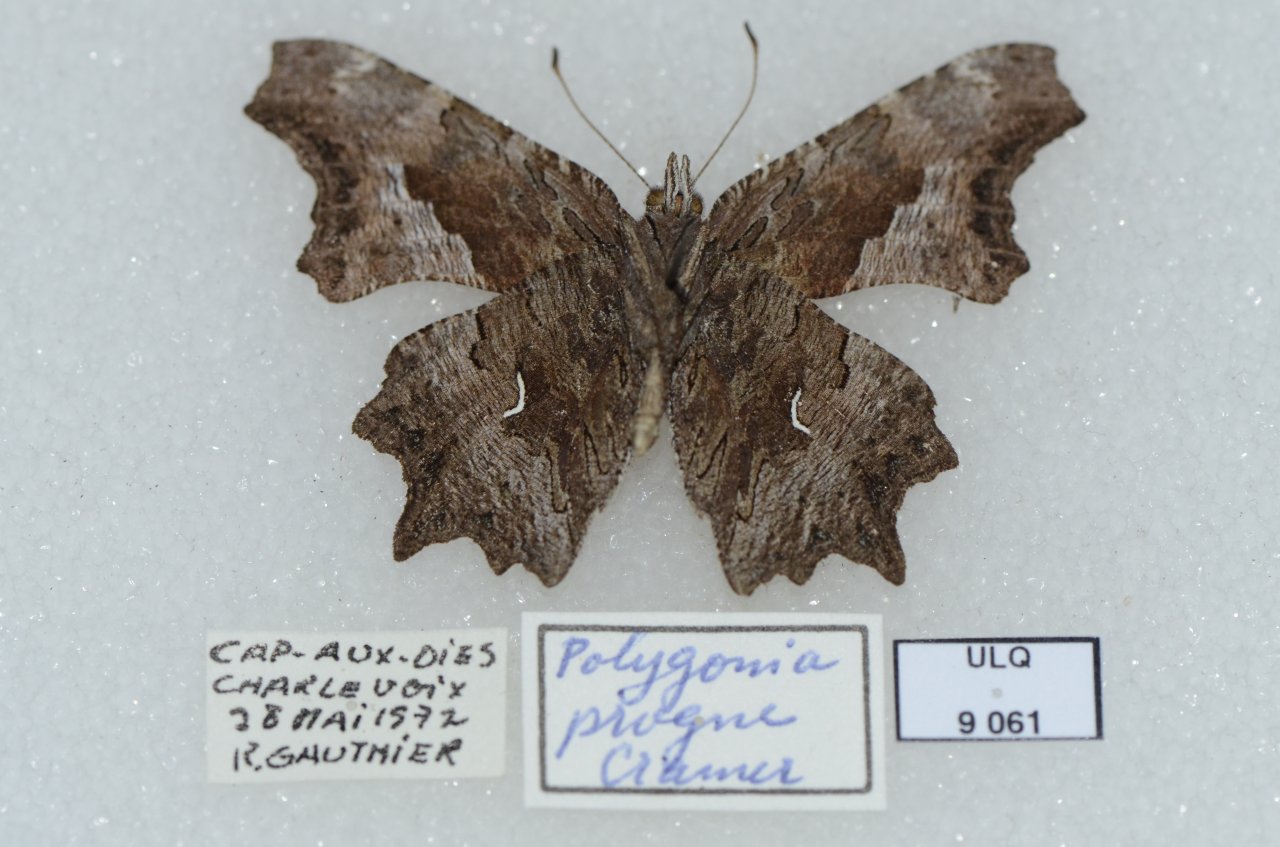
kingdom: Animalia
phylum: Arthropoda
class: Insecta
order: Lepidoptera
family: Nymphalidae
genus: Polygonia
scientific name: Polygonia progne
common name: Gray Comma
